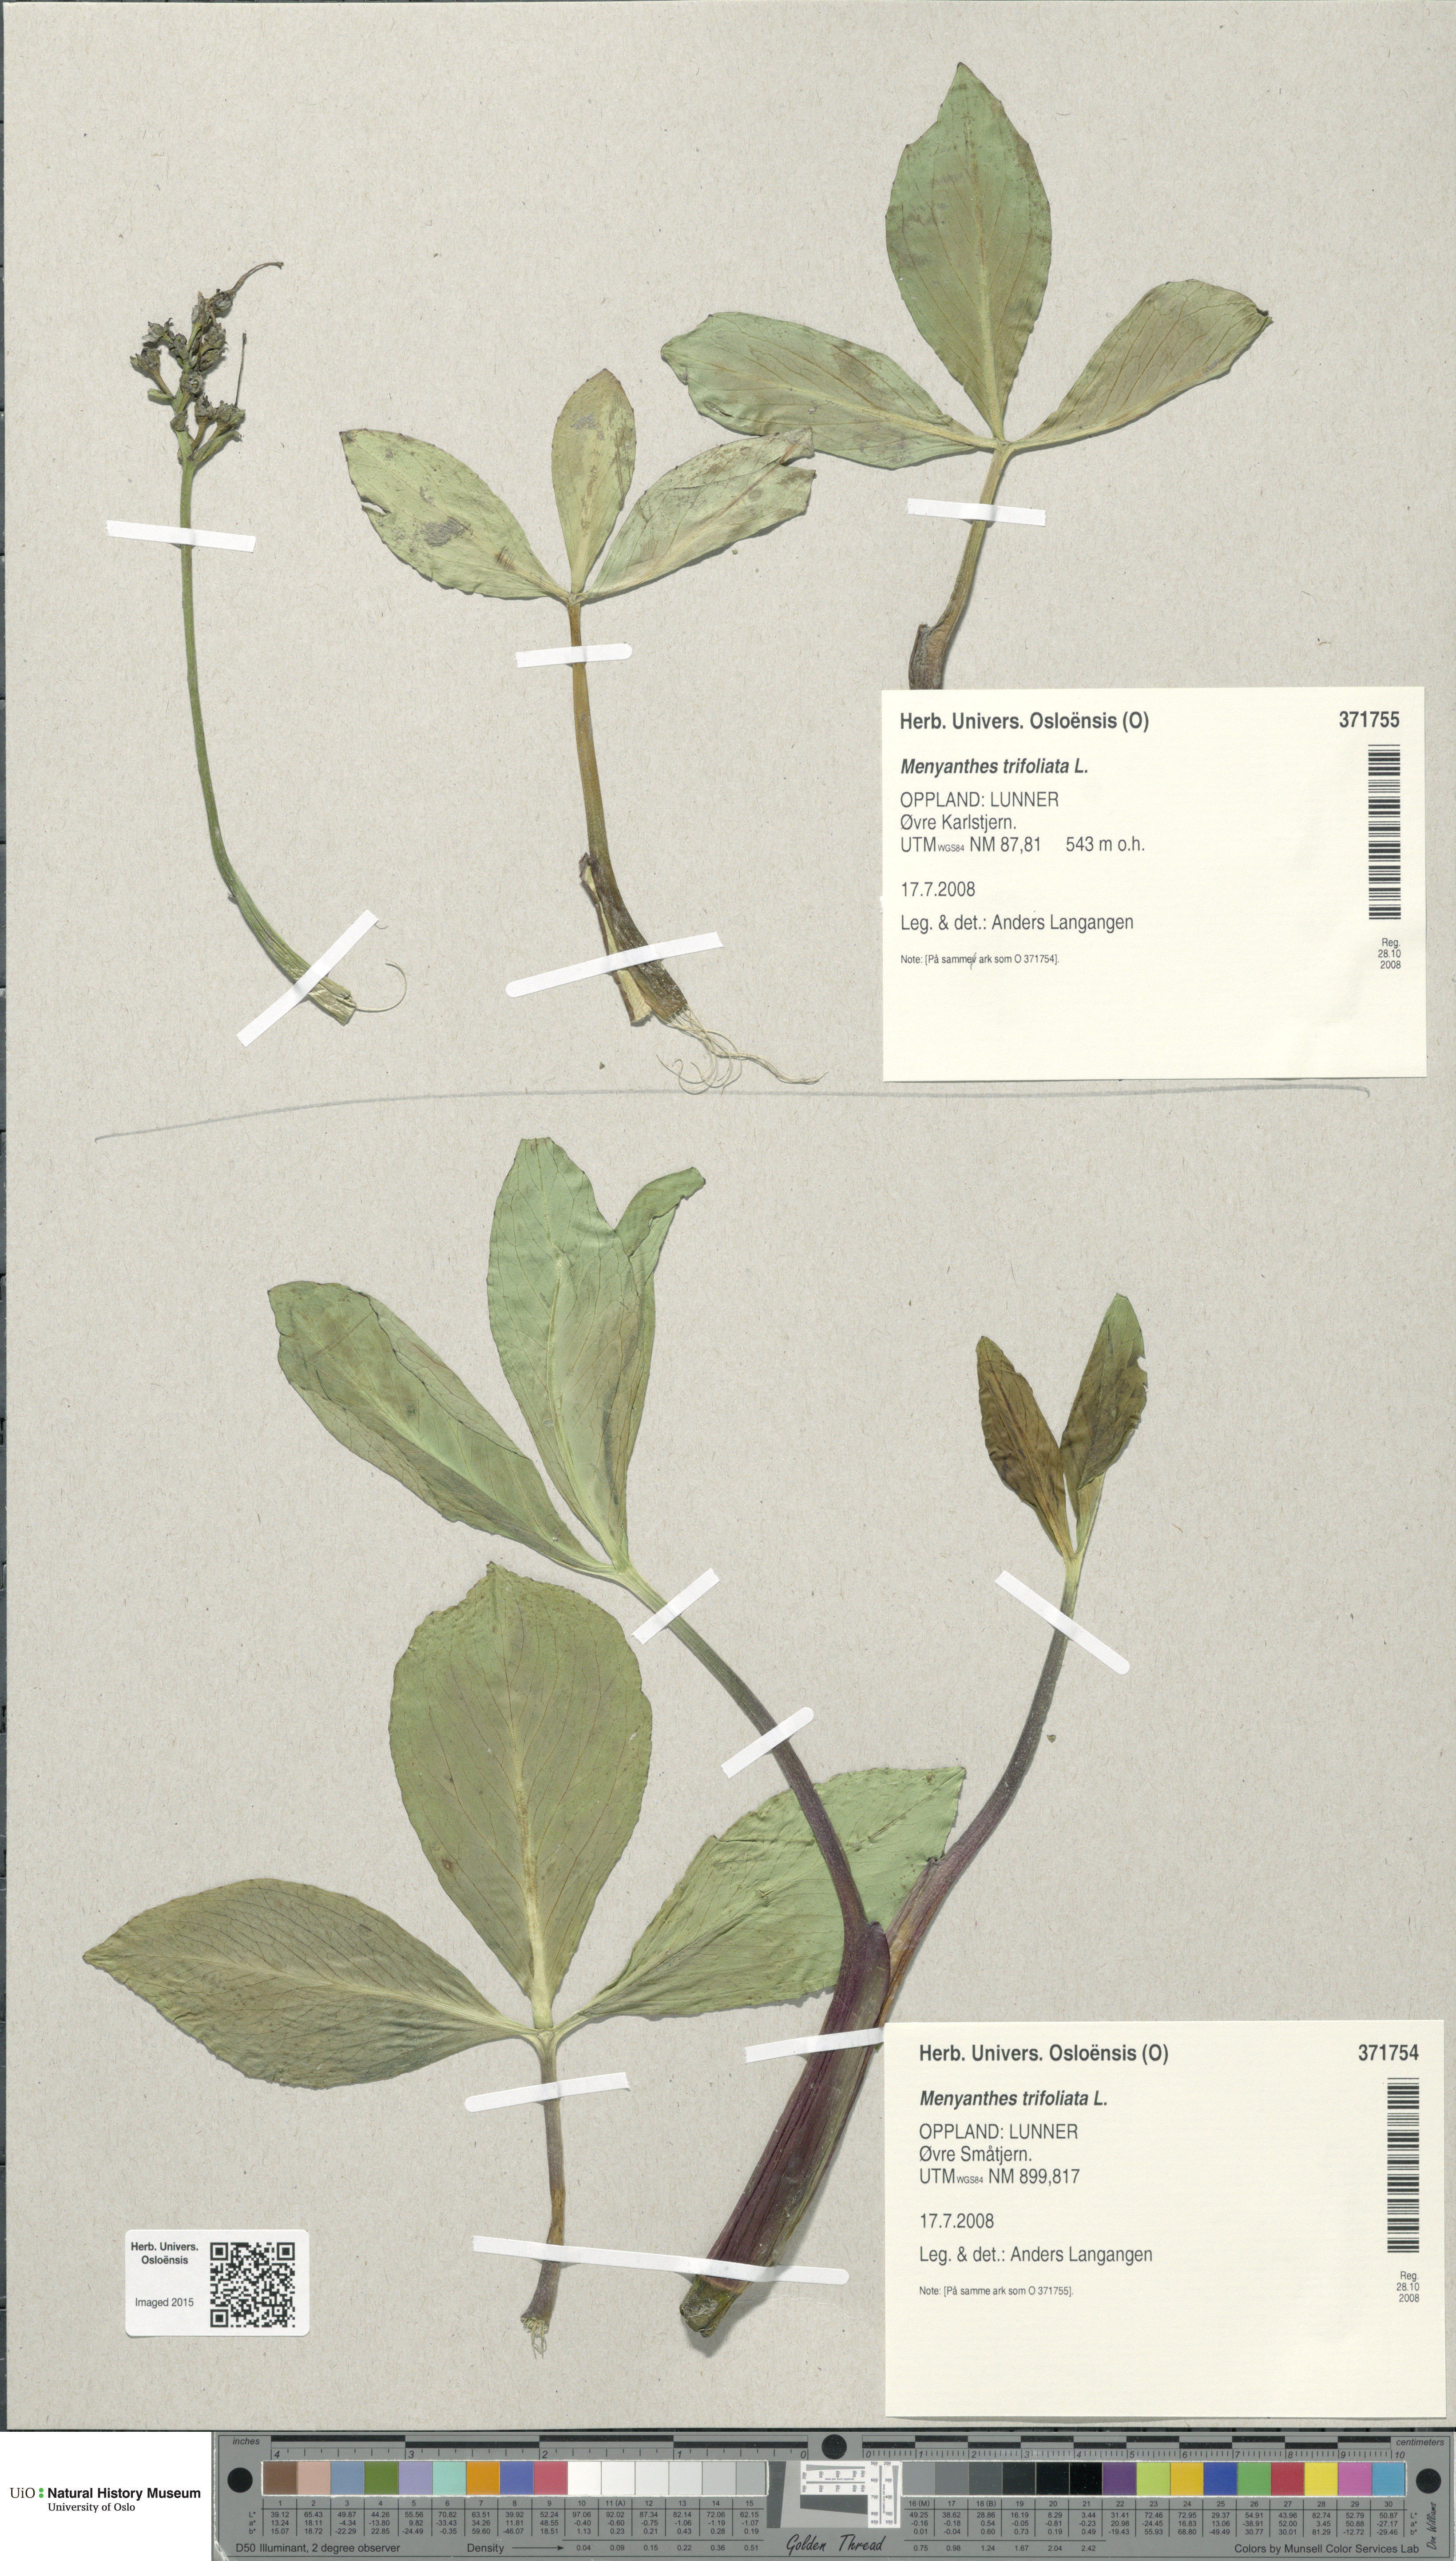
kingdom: Plantae
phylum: Tracheophyta
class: Magnoliopsida
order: Asterales
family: Menyanthaceae
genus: Menyanthes
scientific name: Menyanthes trifoliata
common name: Bogbean
